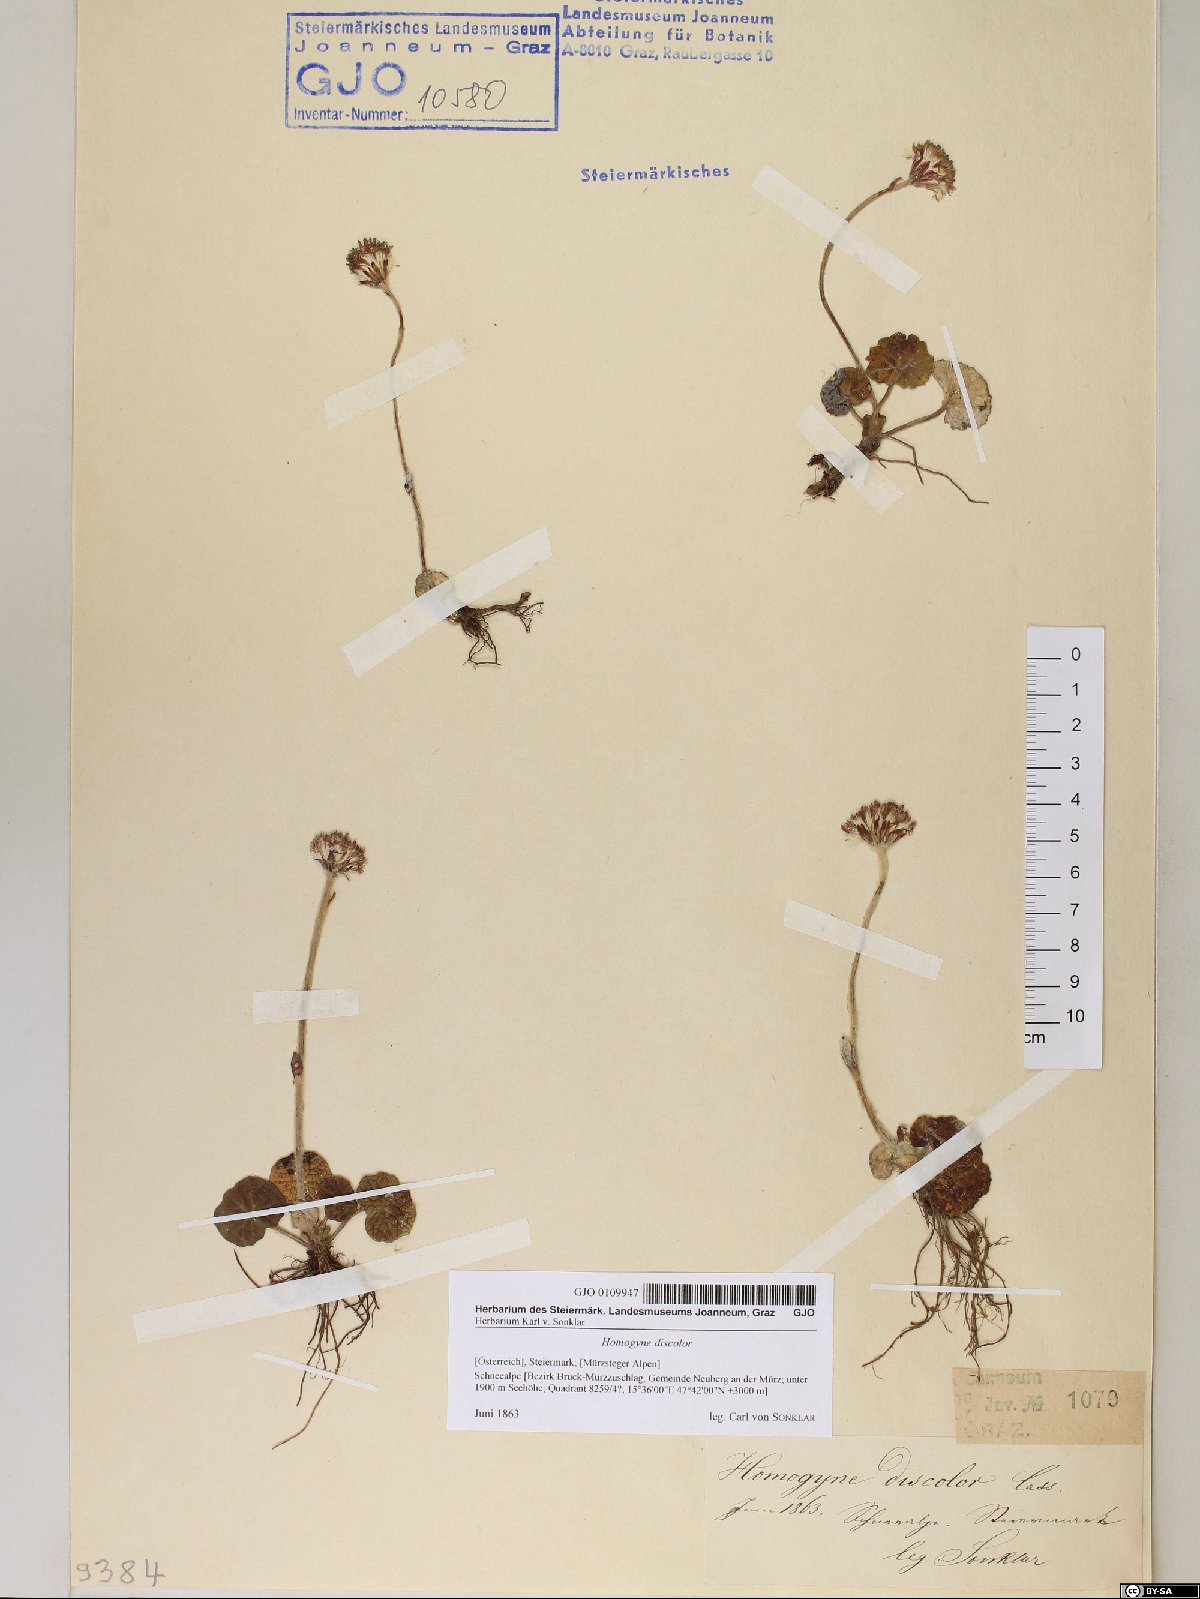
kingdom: Plantae
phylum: Tracheophyta
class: Magnoliopsida
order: Asterales
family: Asteraceae
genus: Homogyne
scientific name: Homogyne discolor
